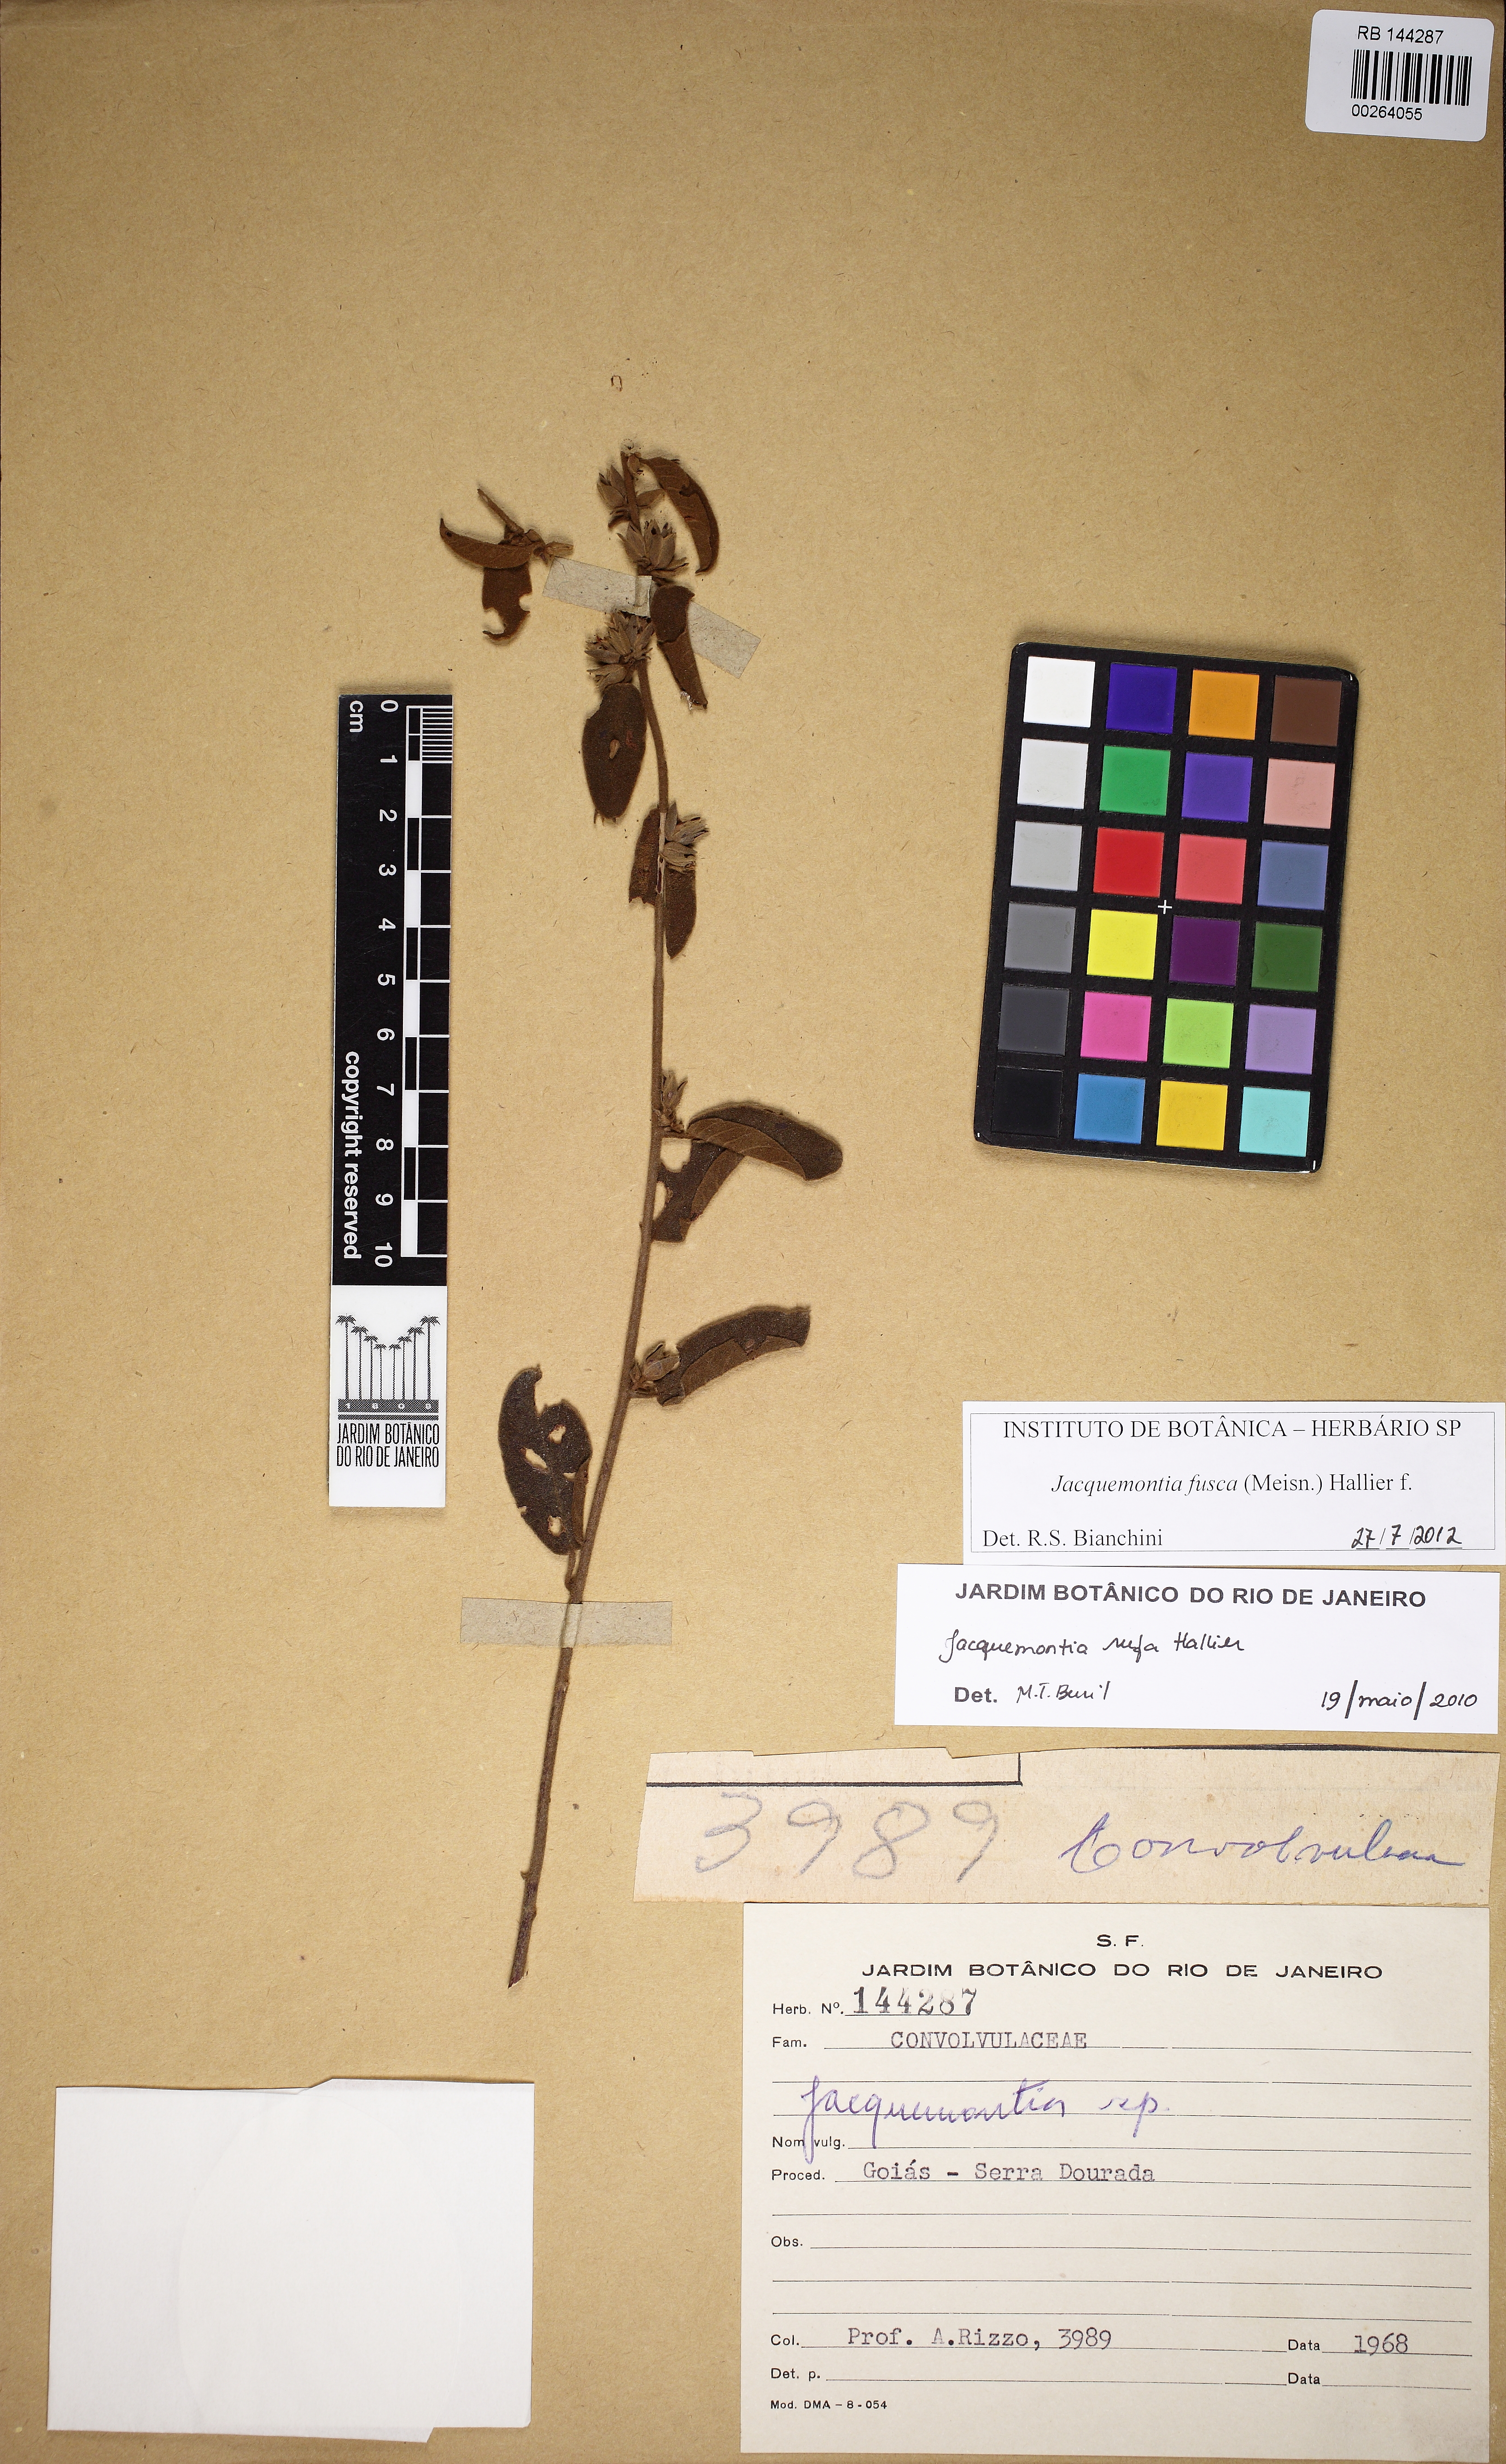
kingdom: Plantae
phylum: Tracheophyta
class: Magnoliopsida
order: Solanales
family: Convolvulaceae
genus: Jacquemontia
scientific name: Jacquemontia fusca
